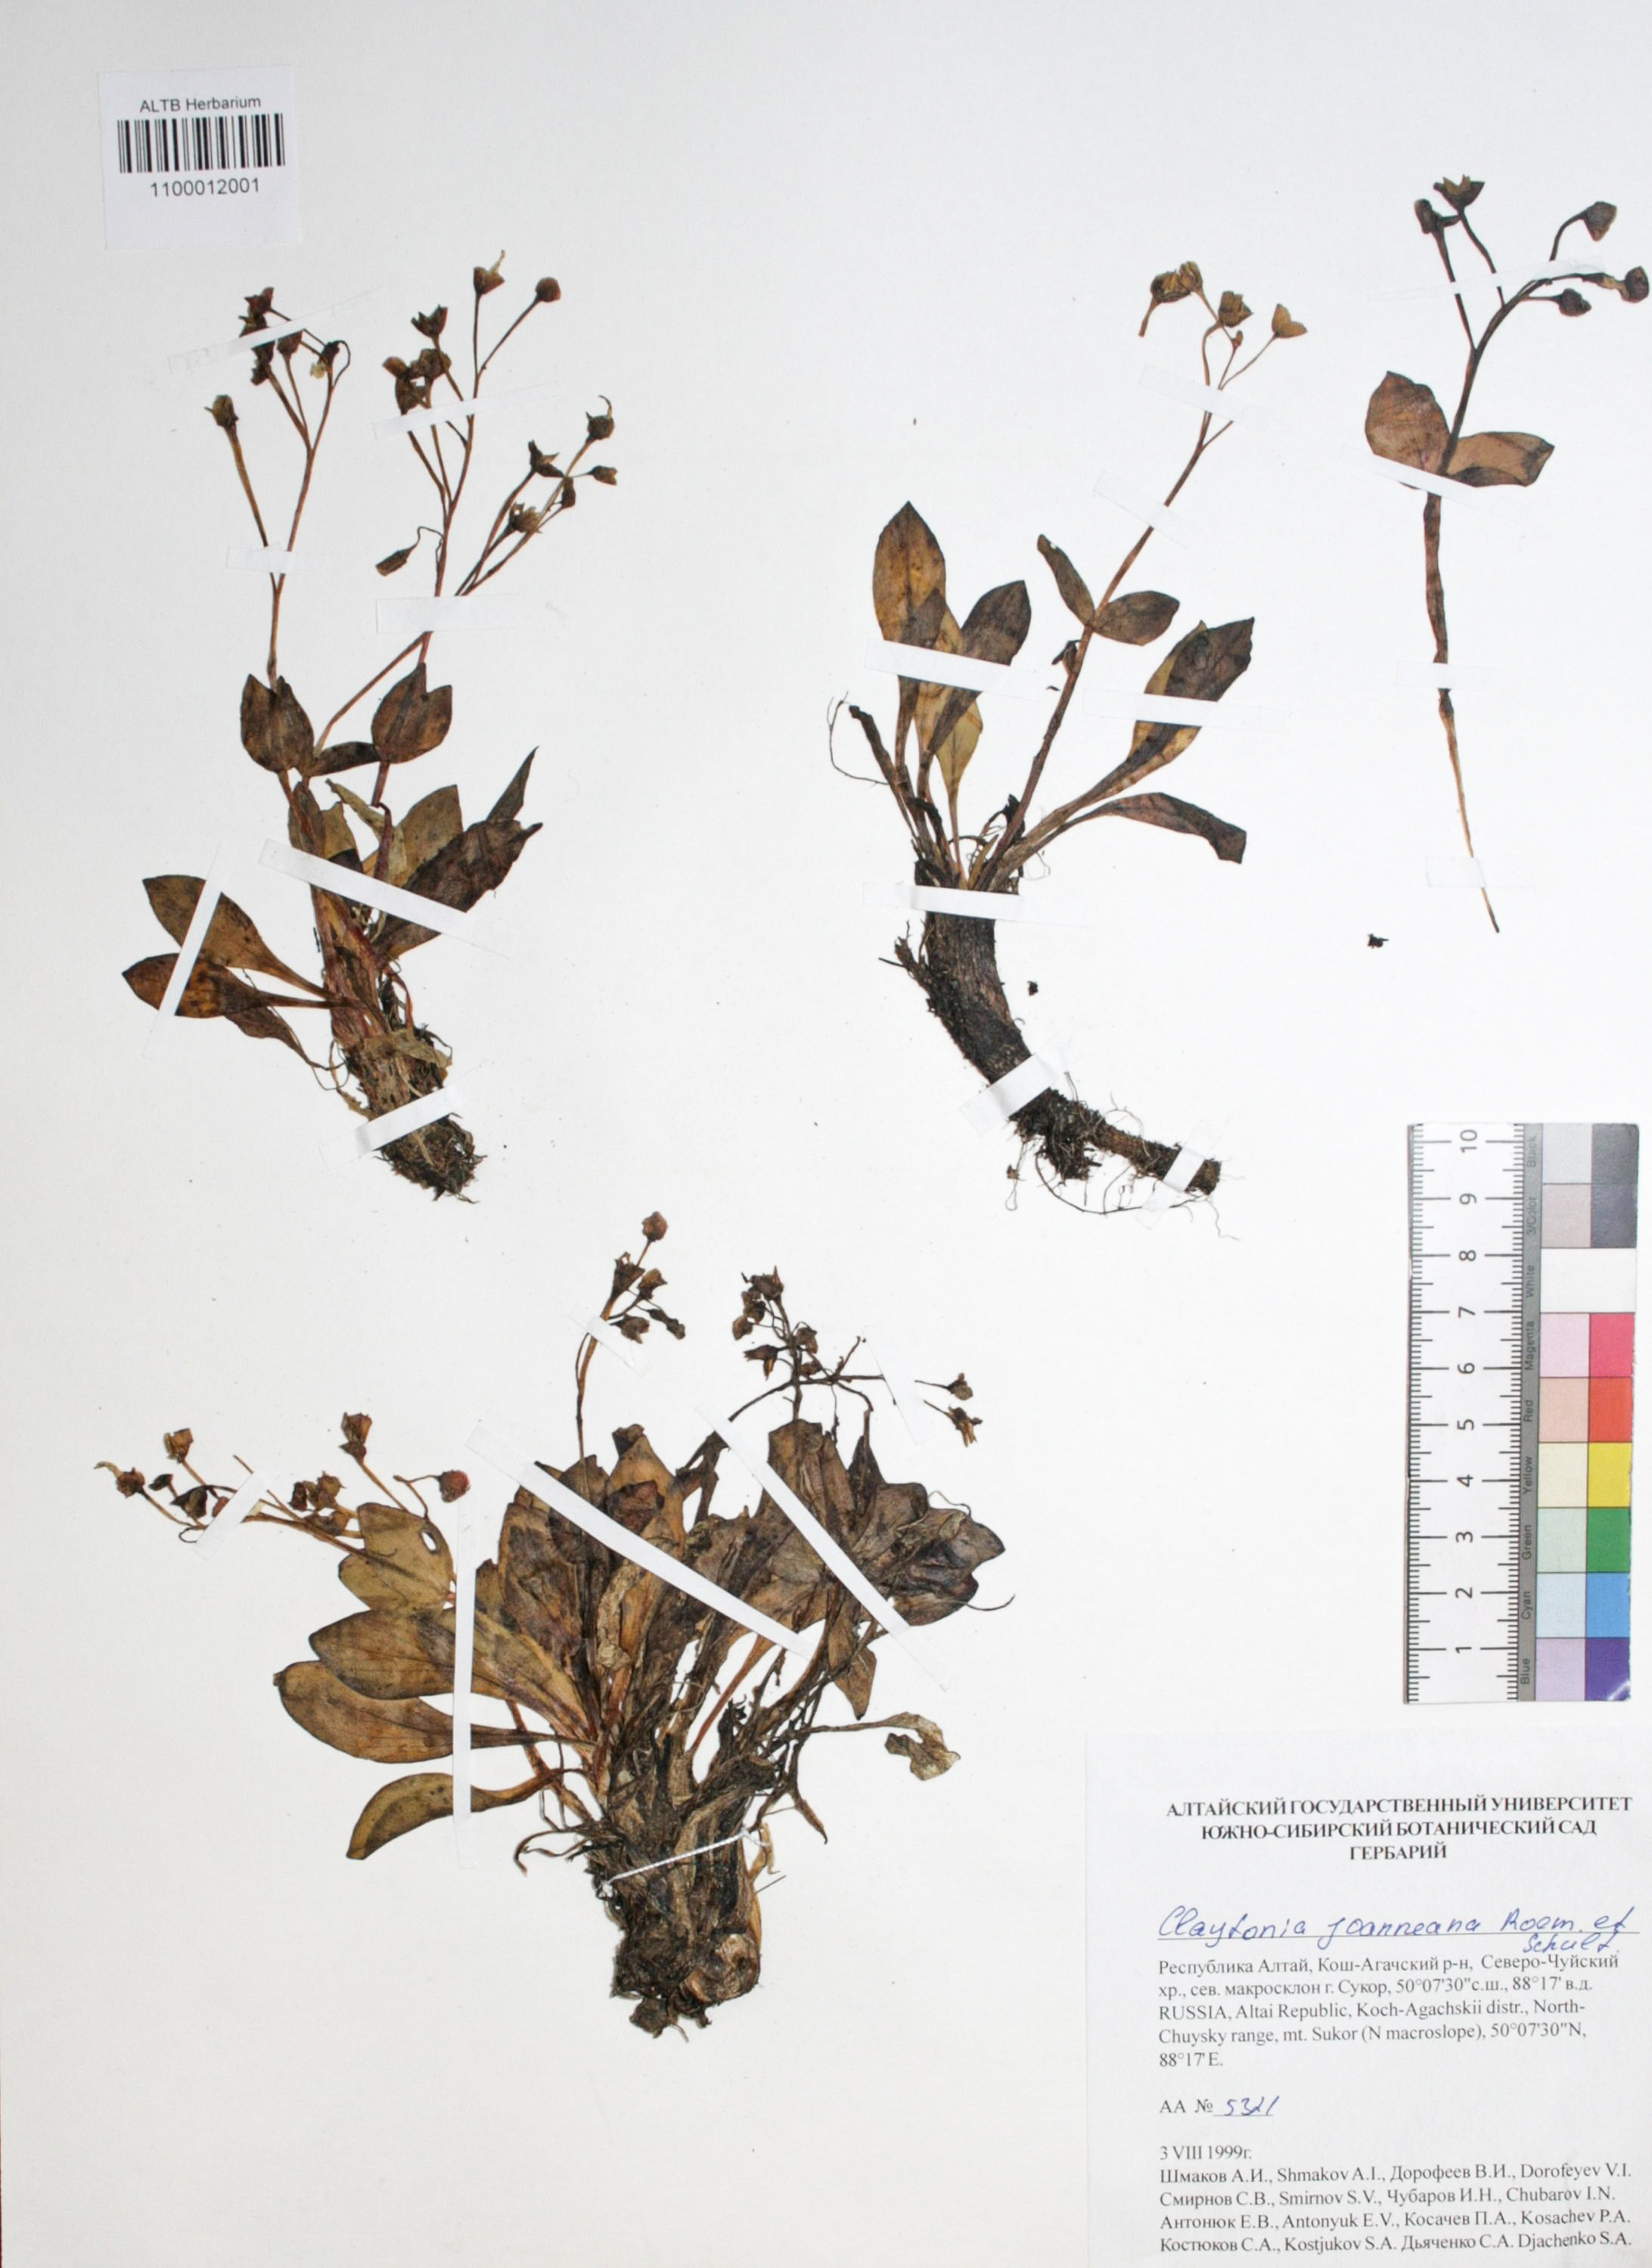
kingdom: Plantae
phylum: Tracheophyta
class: Magnoliopsida
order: Caryophyllales
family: Montiaceae
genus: Claytonia
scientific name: Claytonia joanneana
